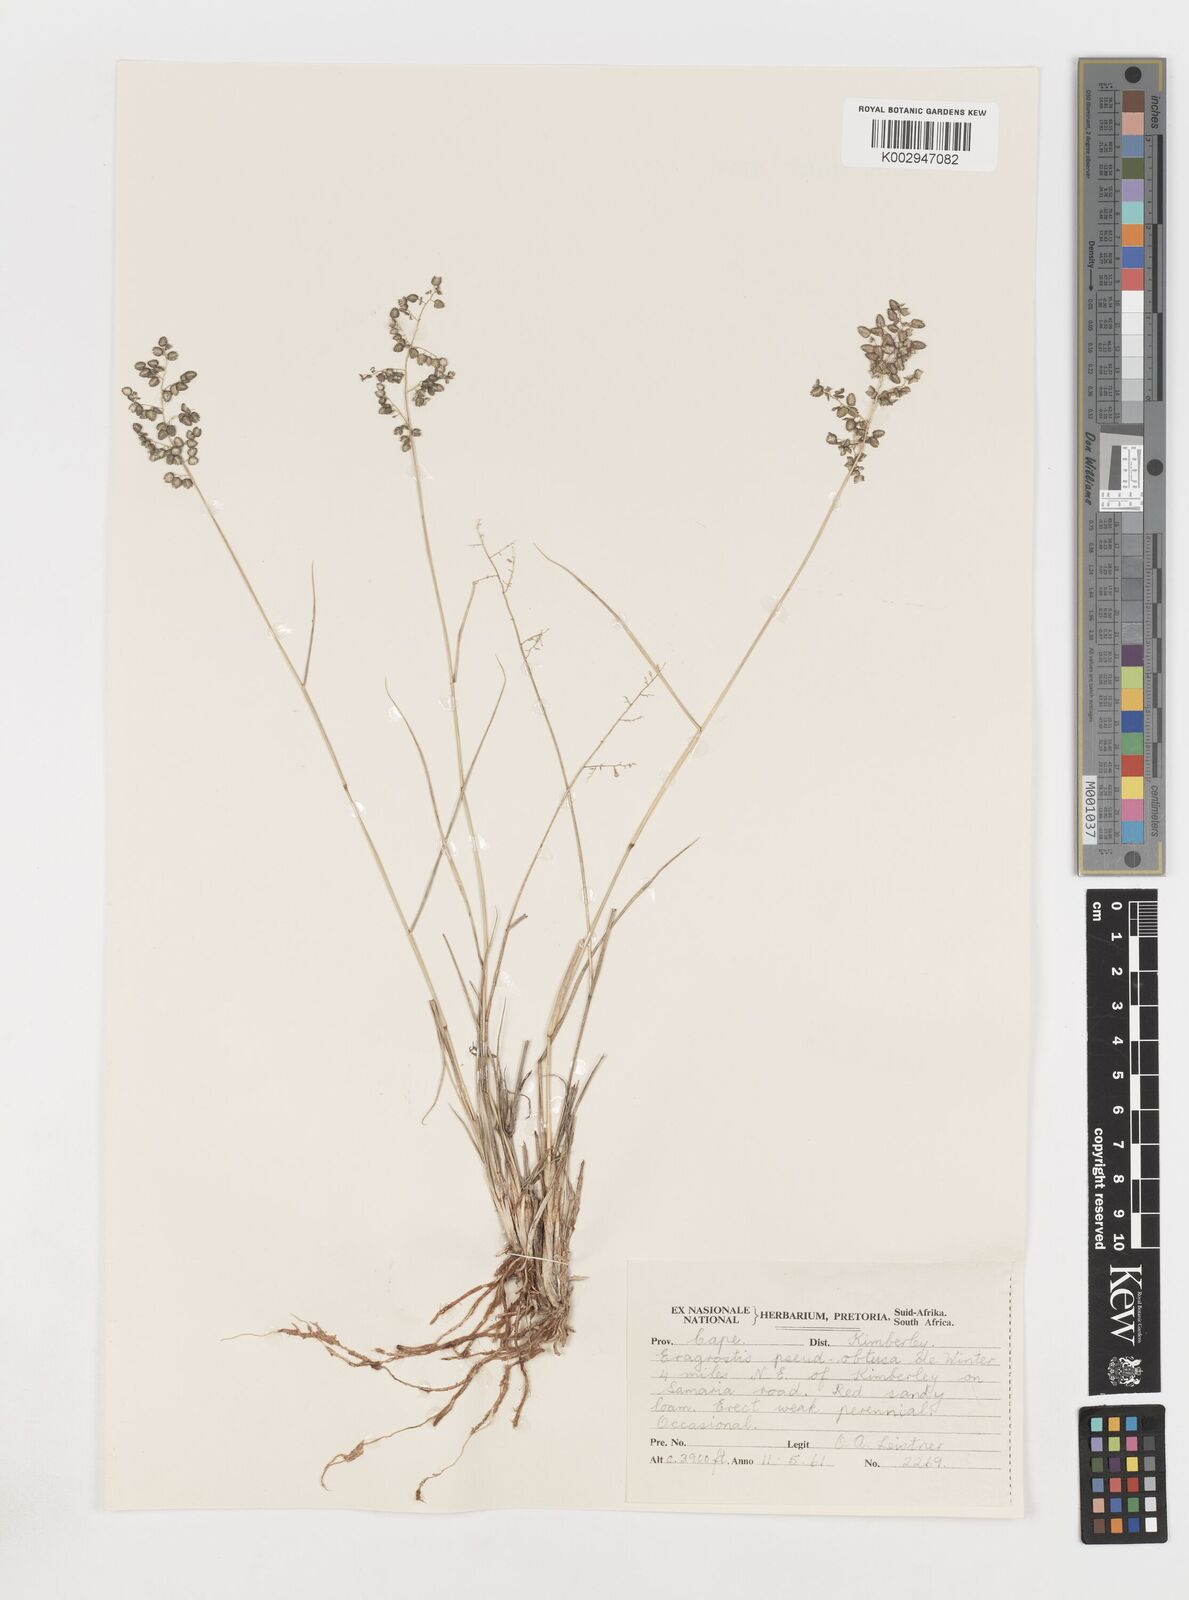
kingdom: Plantae
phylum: Tracheophyta
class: Liliopsida
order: Poales
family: Poaceae
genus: Eragrostis
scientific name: Eragrostis pseudobtusa
